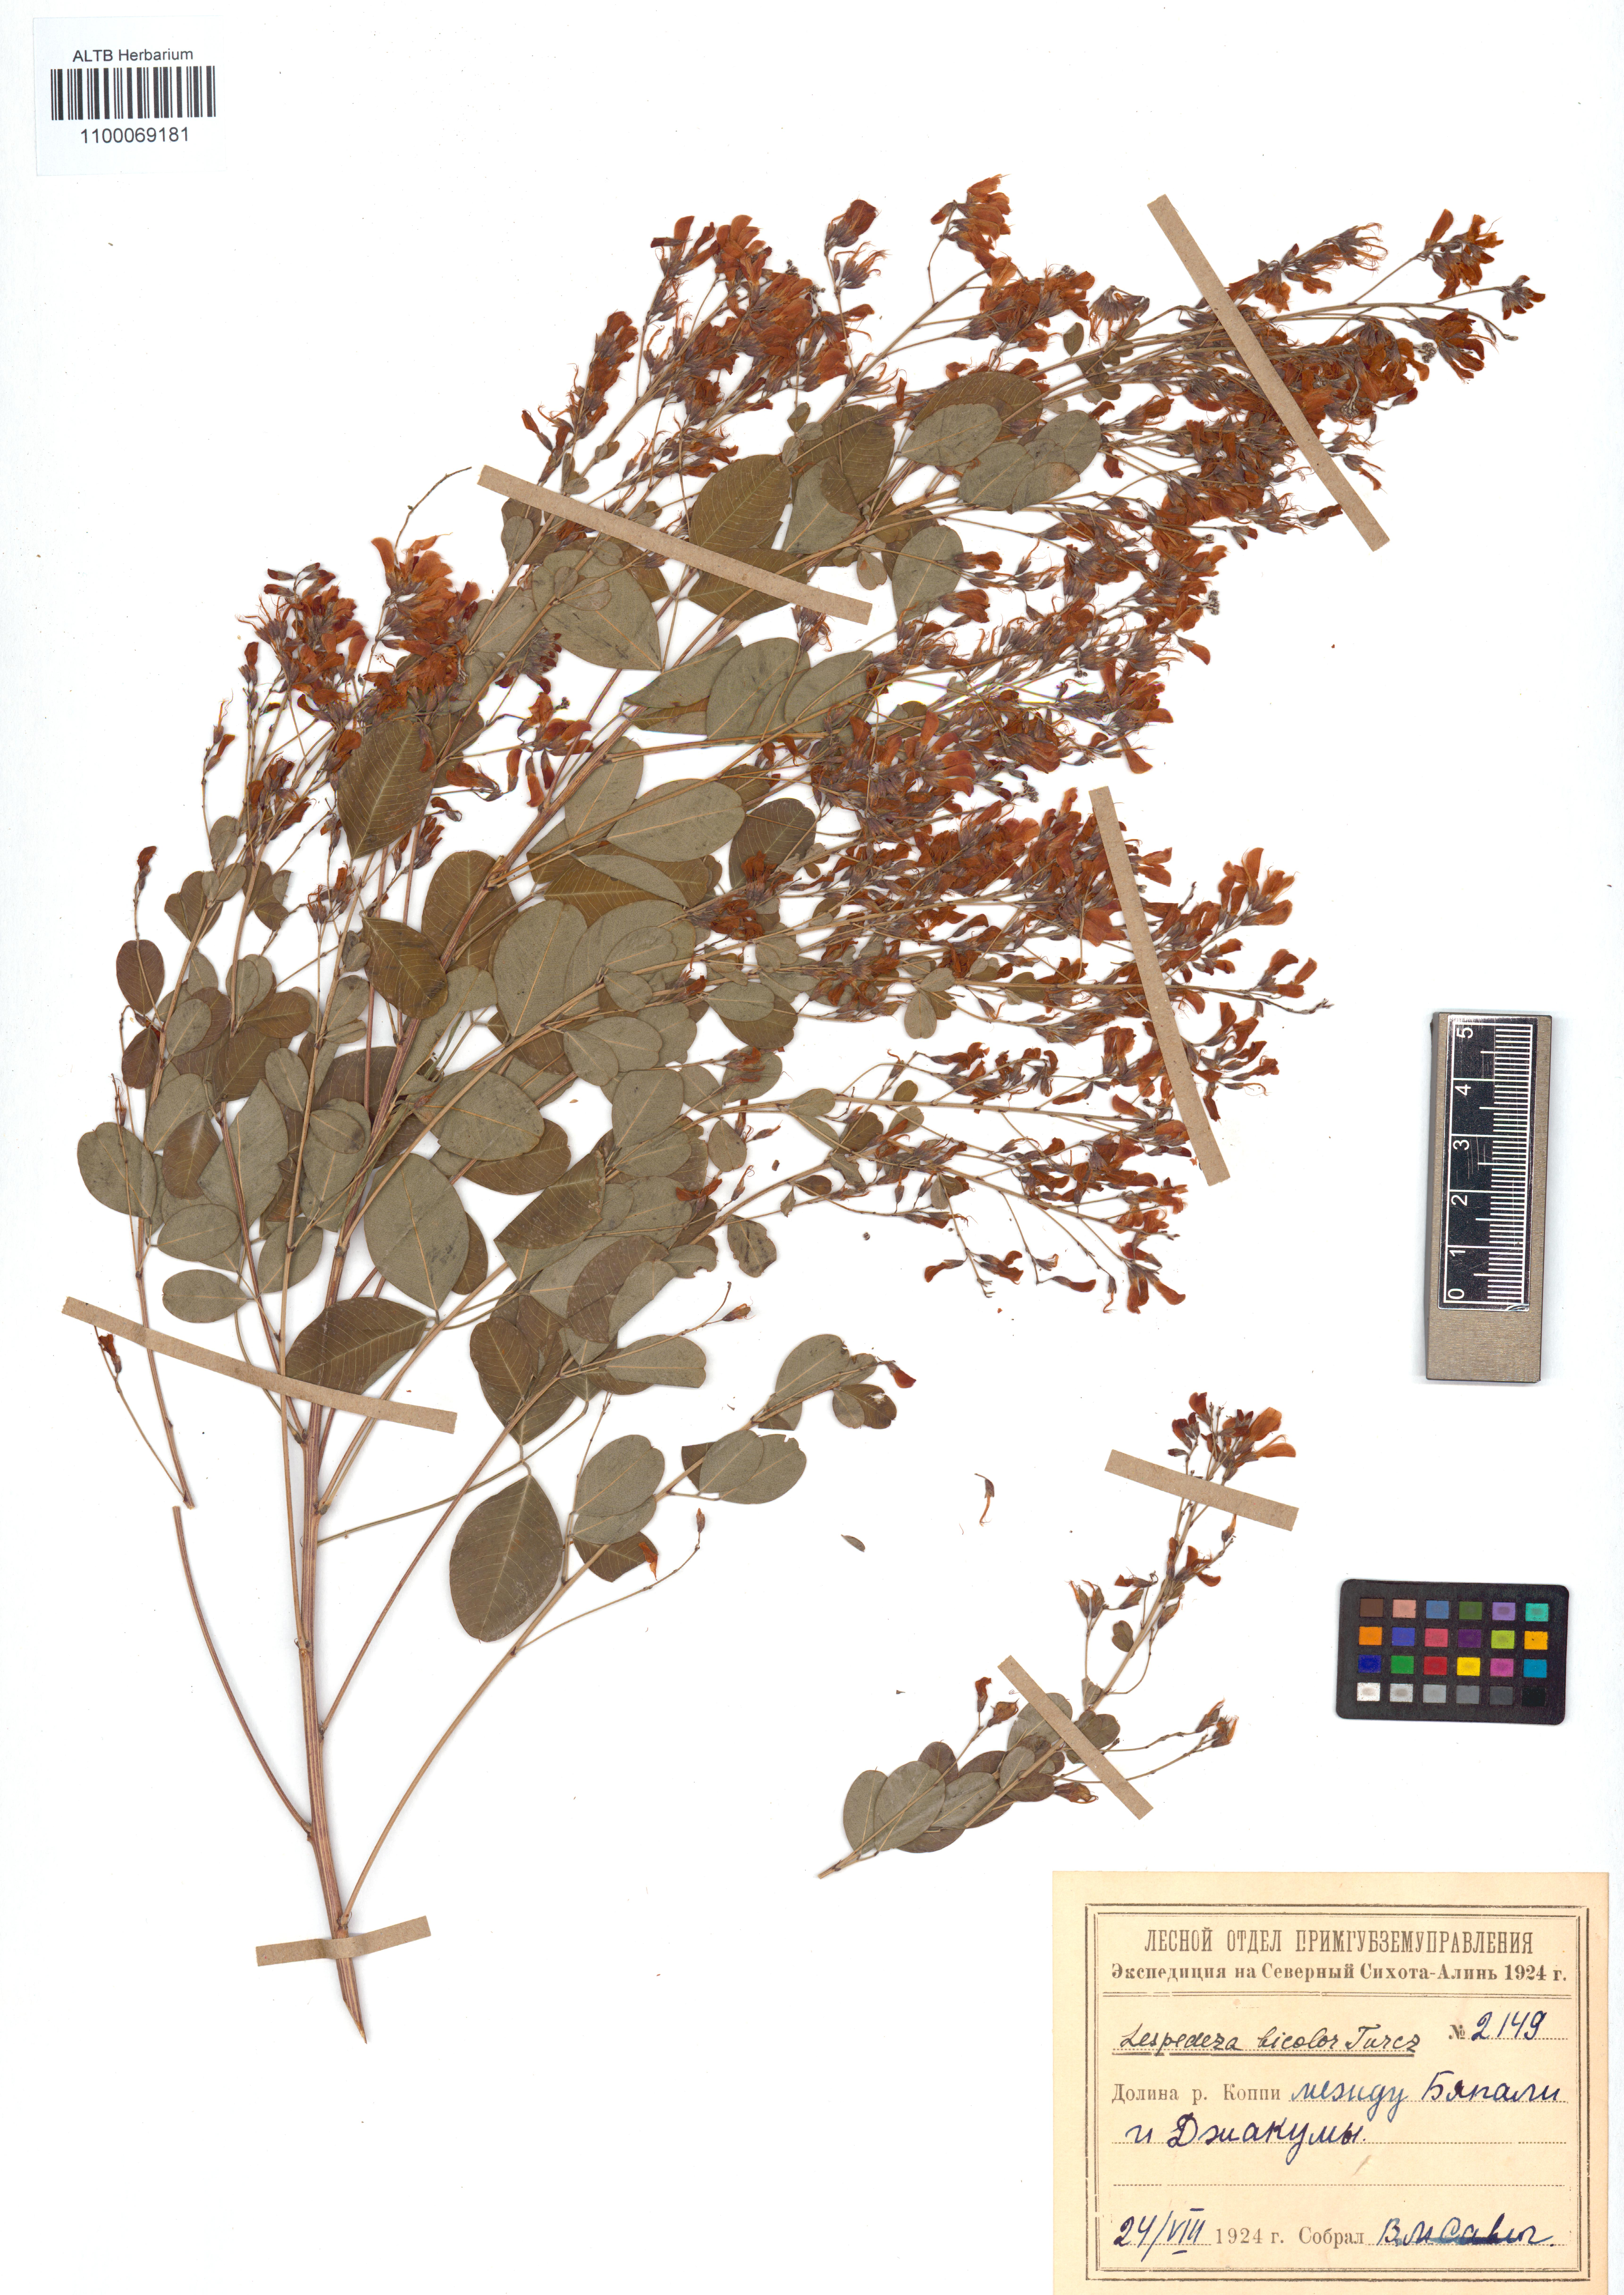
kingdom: Plantae
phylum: Tracheophyta
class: Magnoliopsida
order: Fabales
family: Fabaceae
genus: Lespedeza
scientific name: Lespedeza bicolor
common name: Shrub lespedeza
